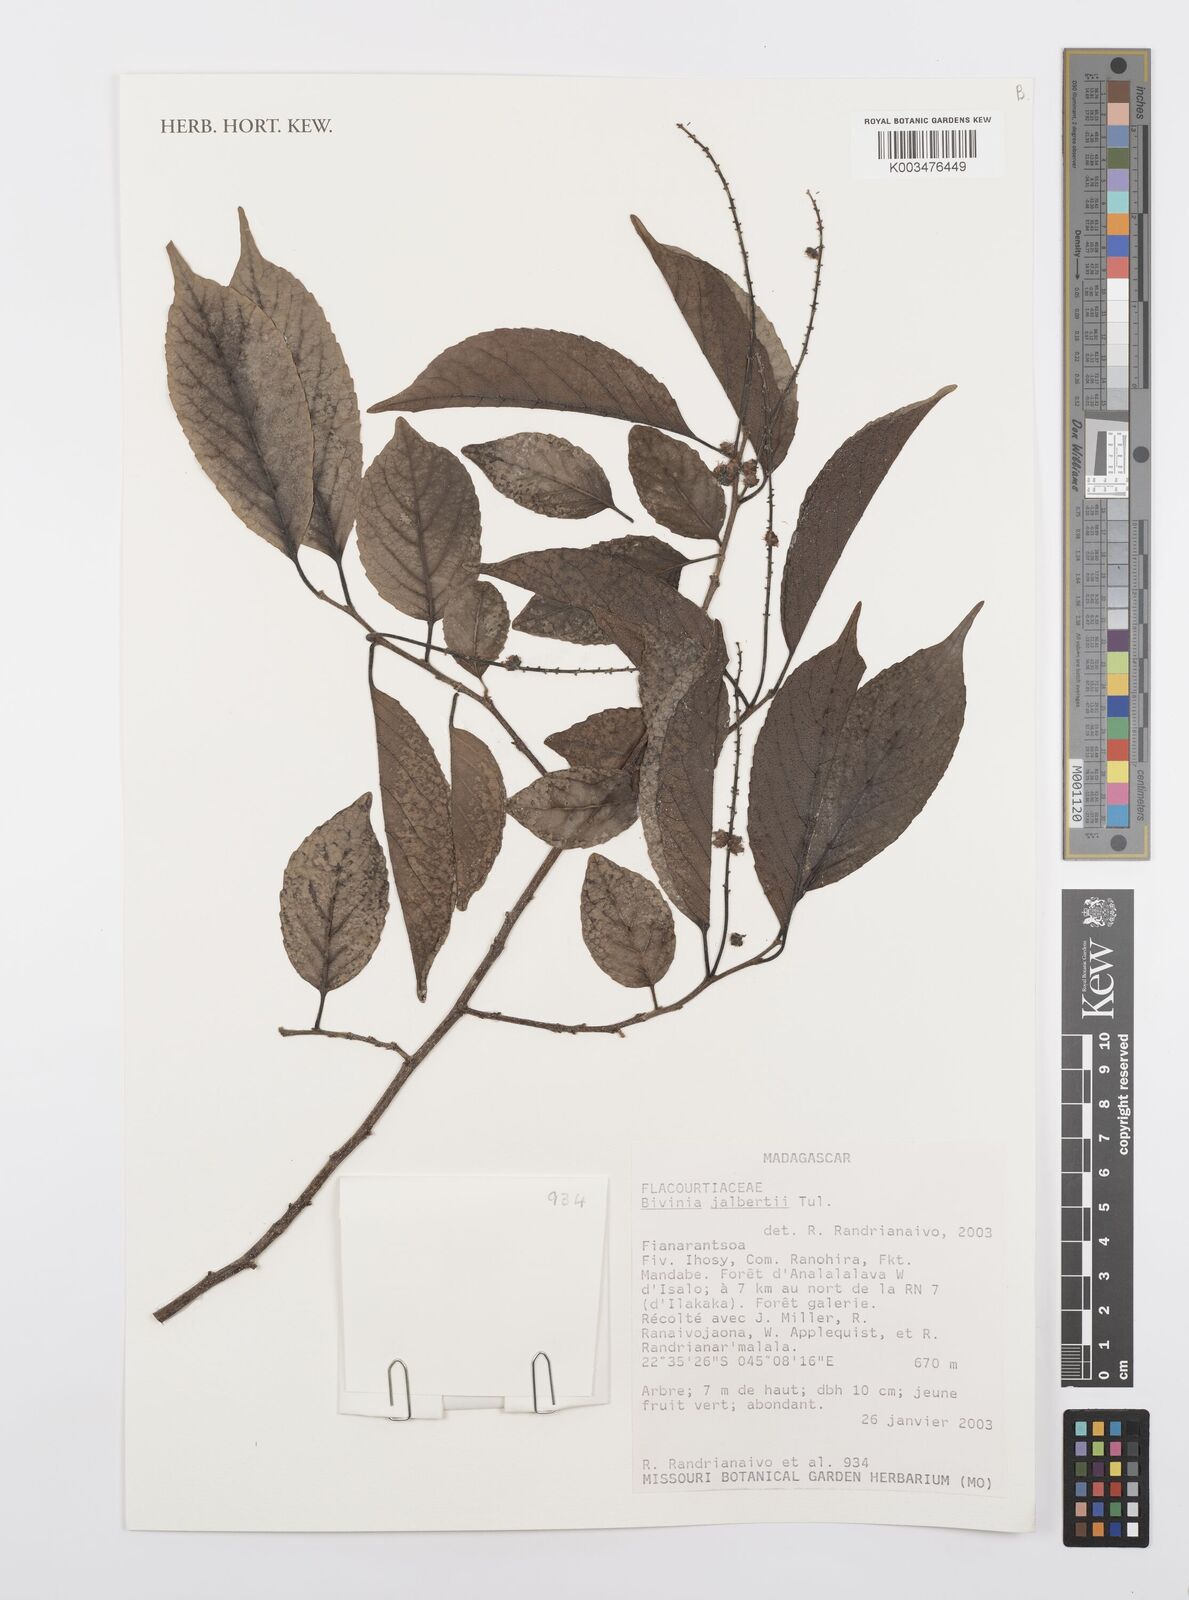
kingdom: Plantae
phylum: Tracheophyta
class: Magnoliopsida
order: Malpighiales
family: Salicaceae
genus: Bivinia
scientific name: Bivinia jalbertii
